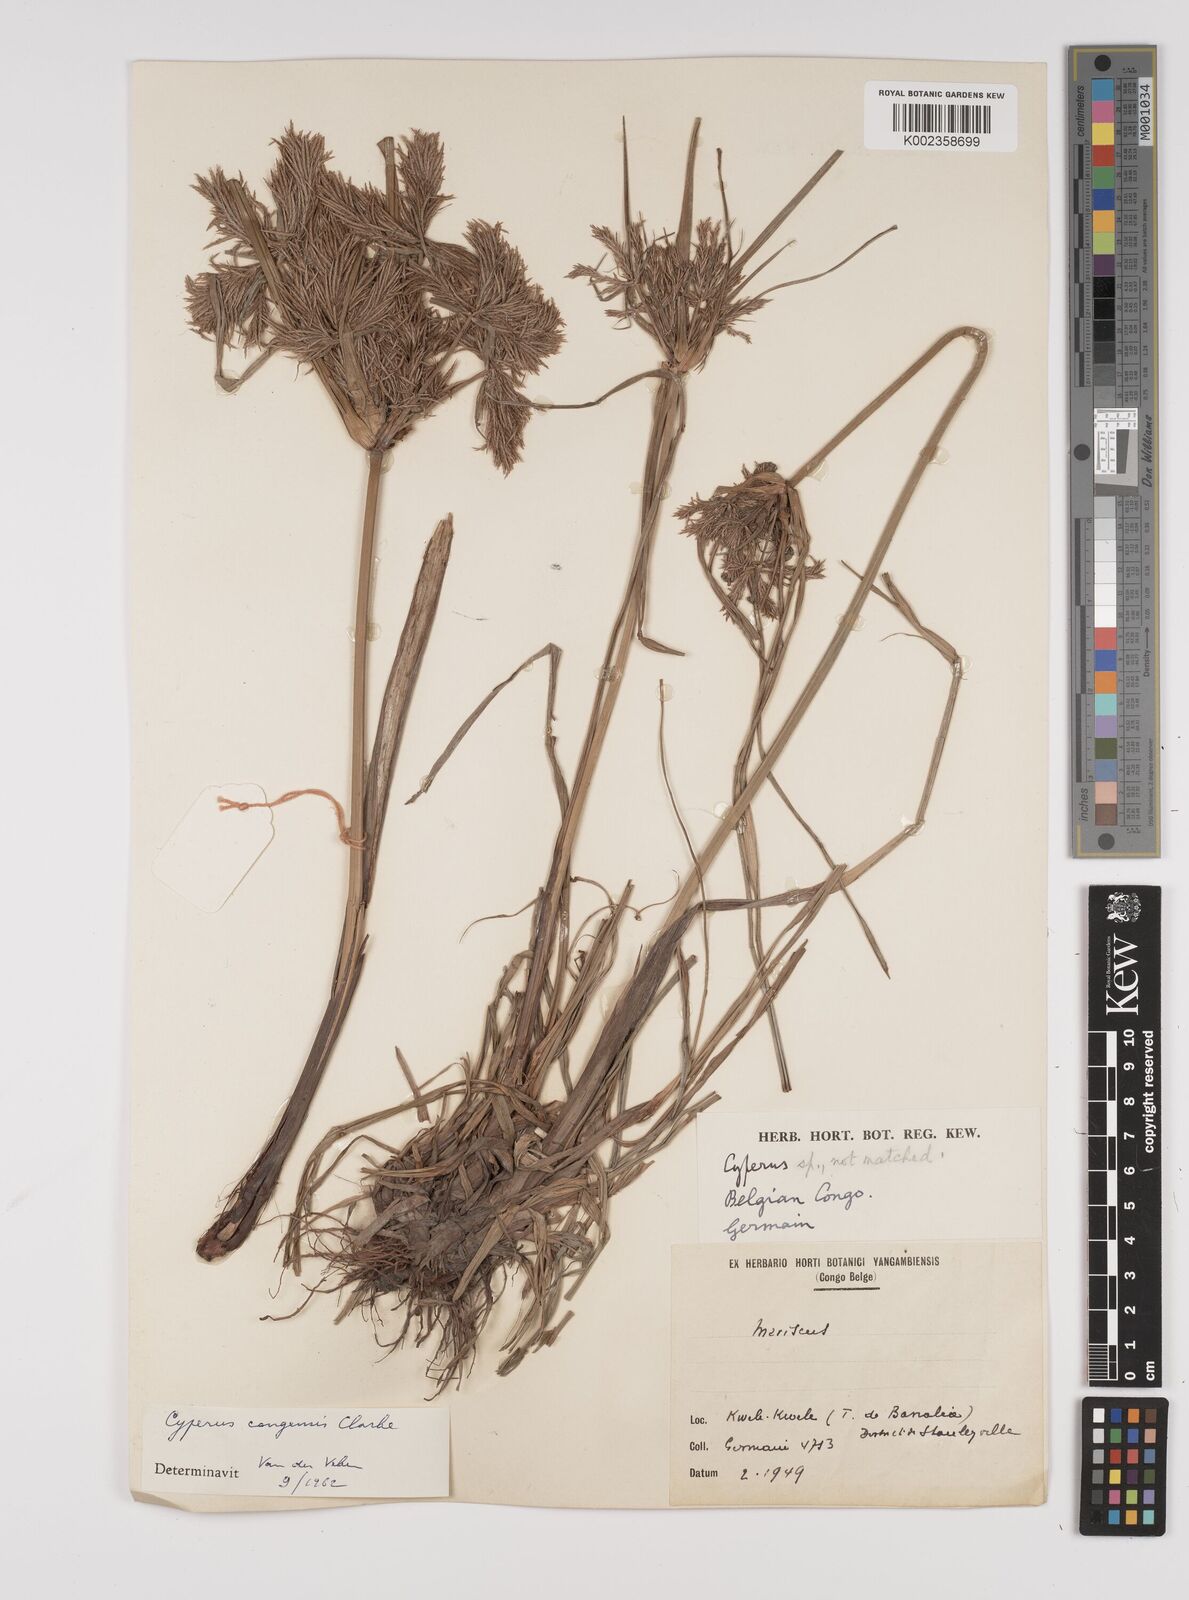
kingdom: Plantae
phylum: Tracheophyta
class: Liliopsida
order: Poales
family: Cyperaceae
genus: Cyperus
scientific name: Cyperus congensis
